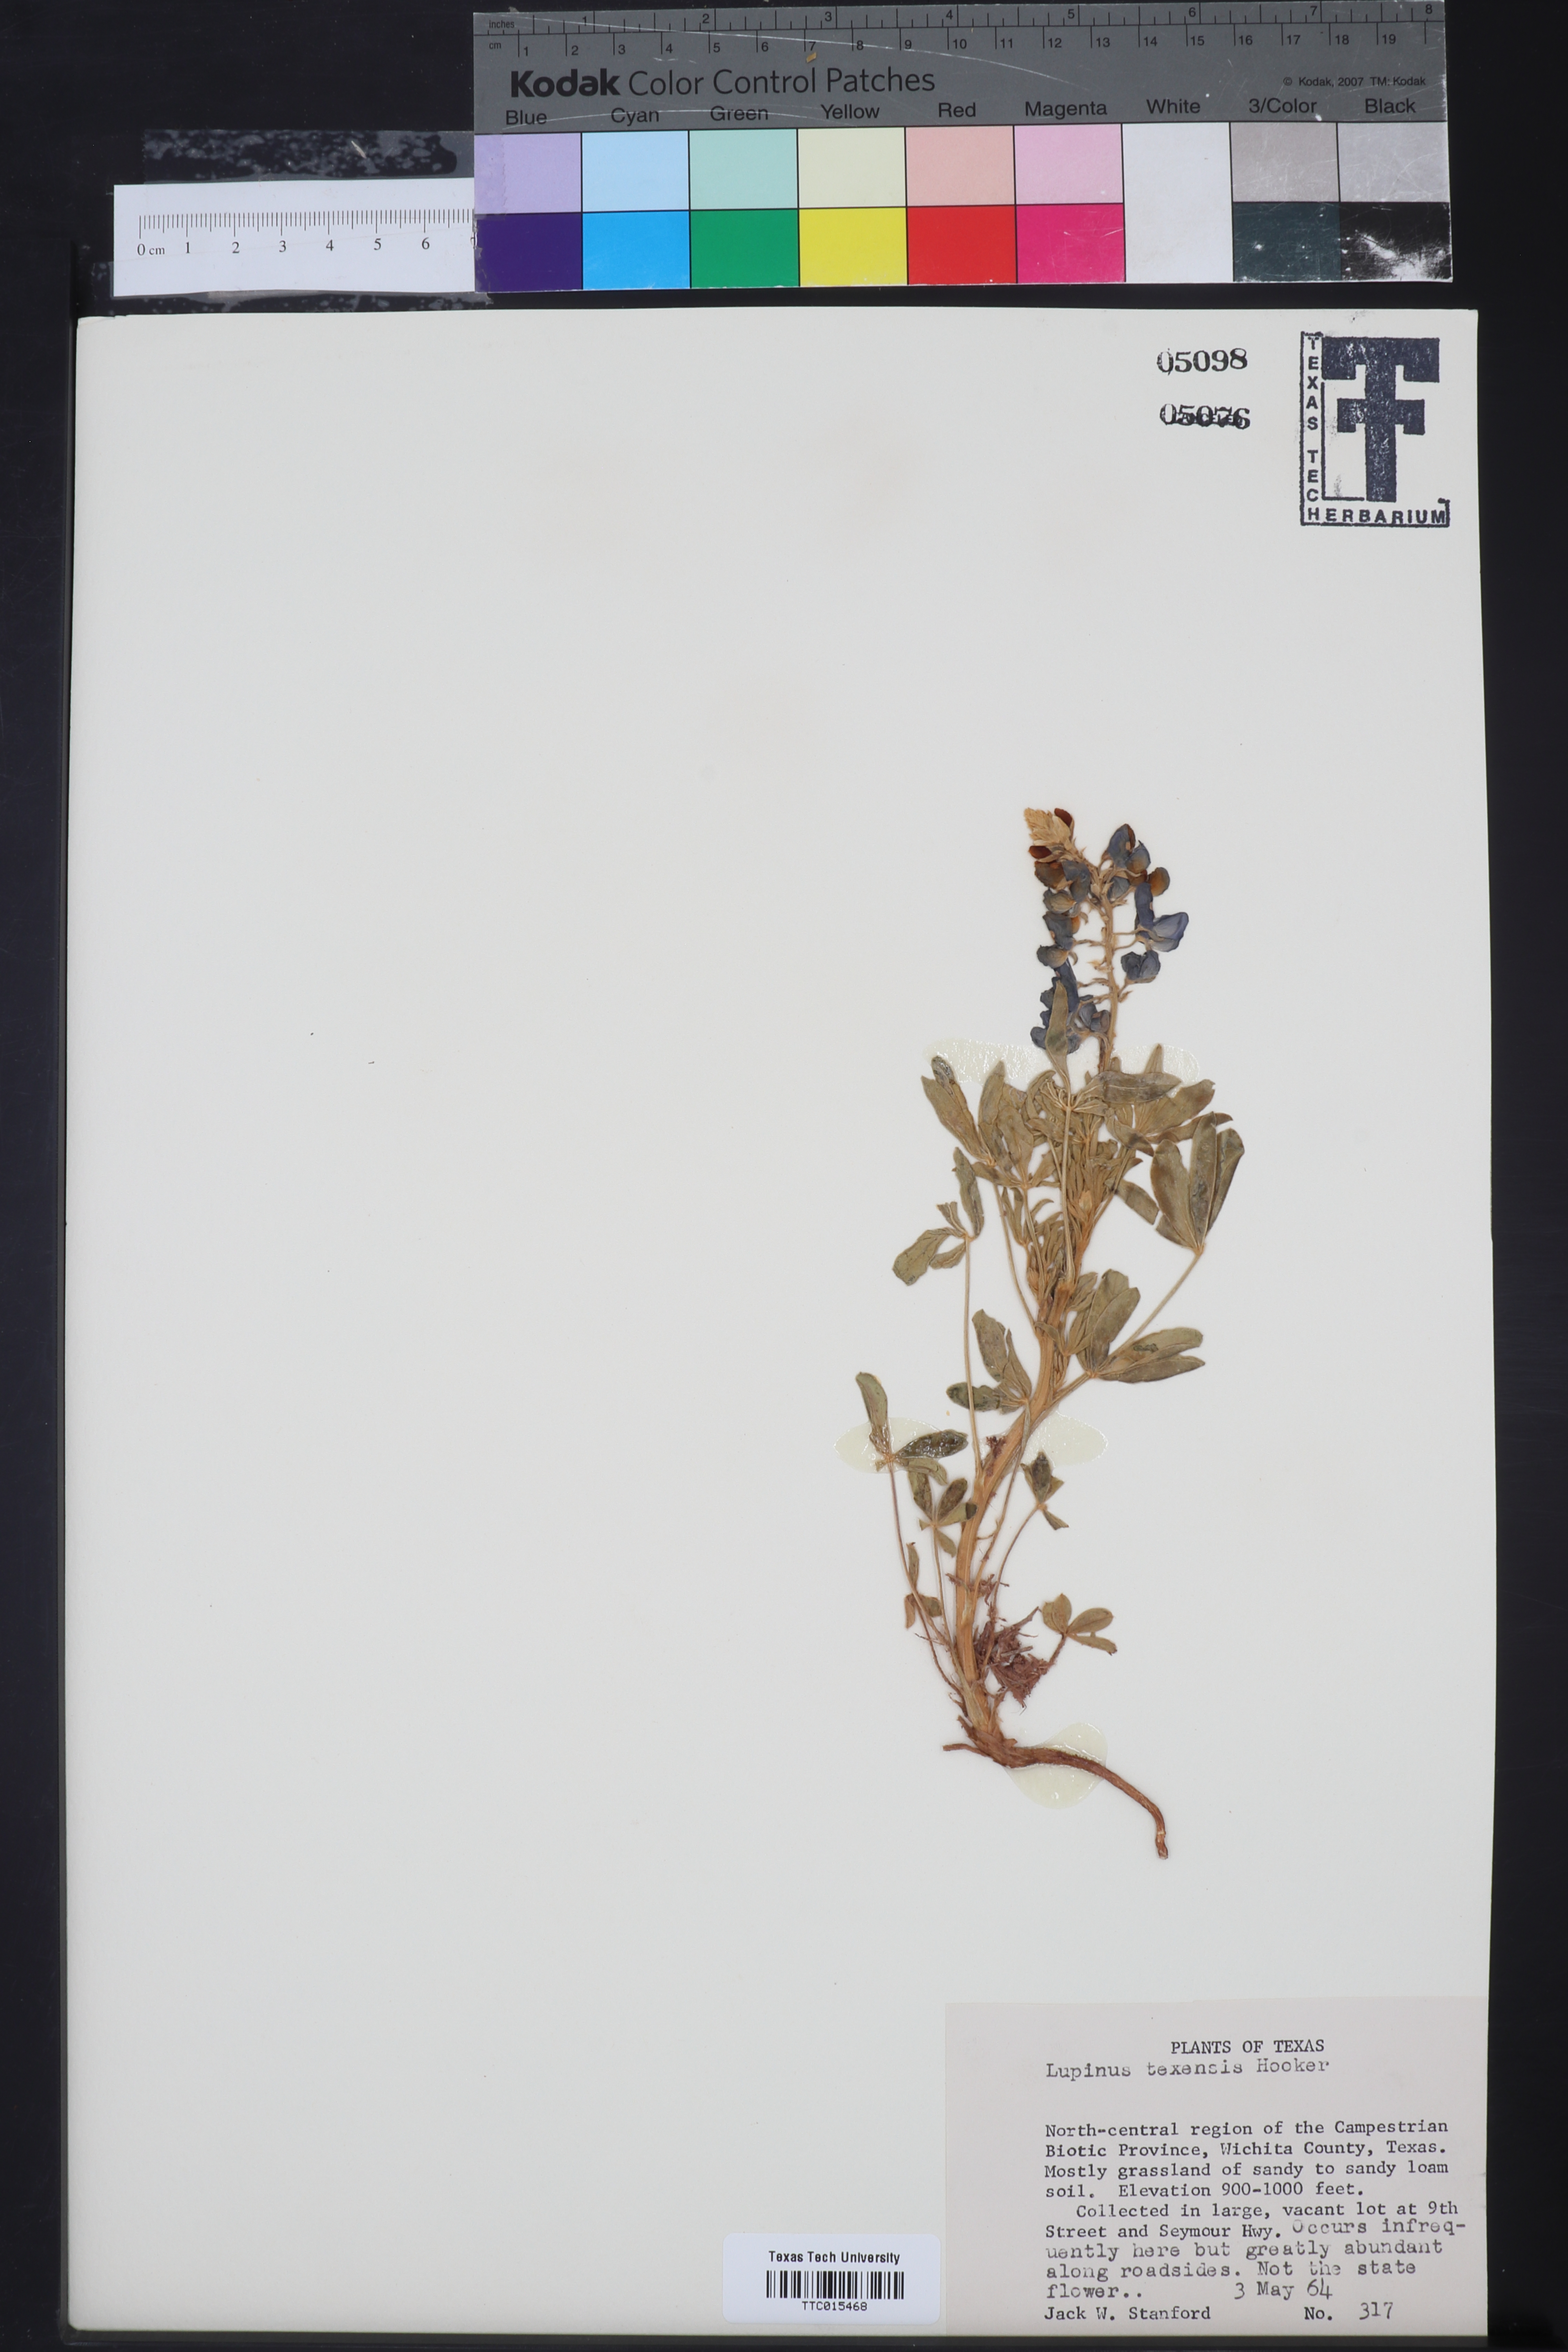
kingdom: Plantae
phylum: Tracheophyta
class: Magnoliopsida
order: Fabales
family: Fabaceae
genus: Lupinus
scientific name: Lupinus texensis
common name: Texas bluebonnet
